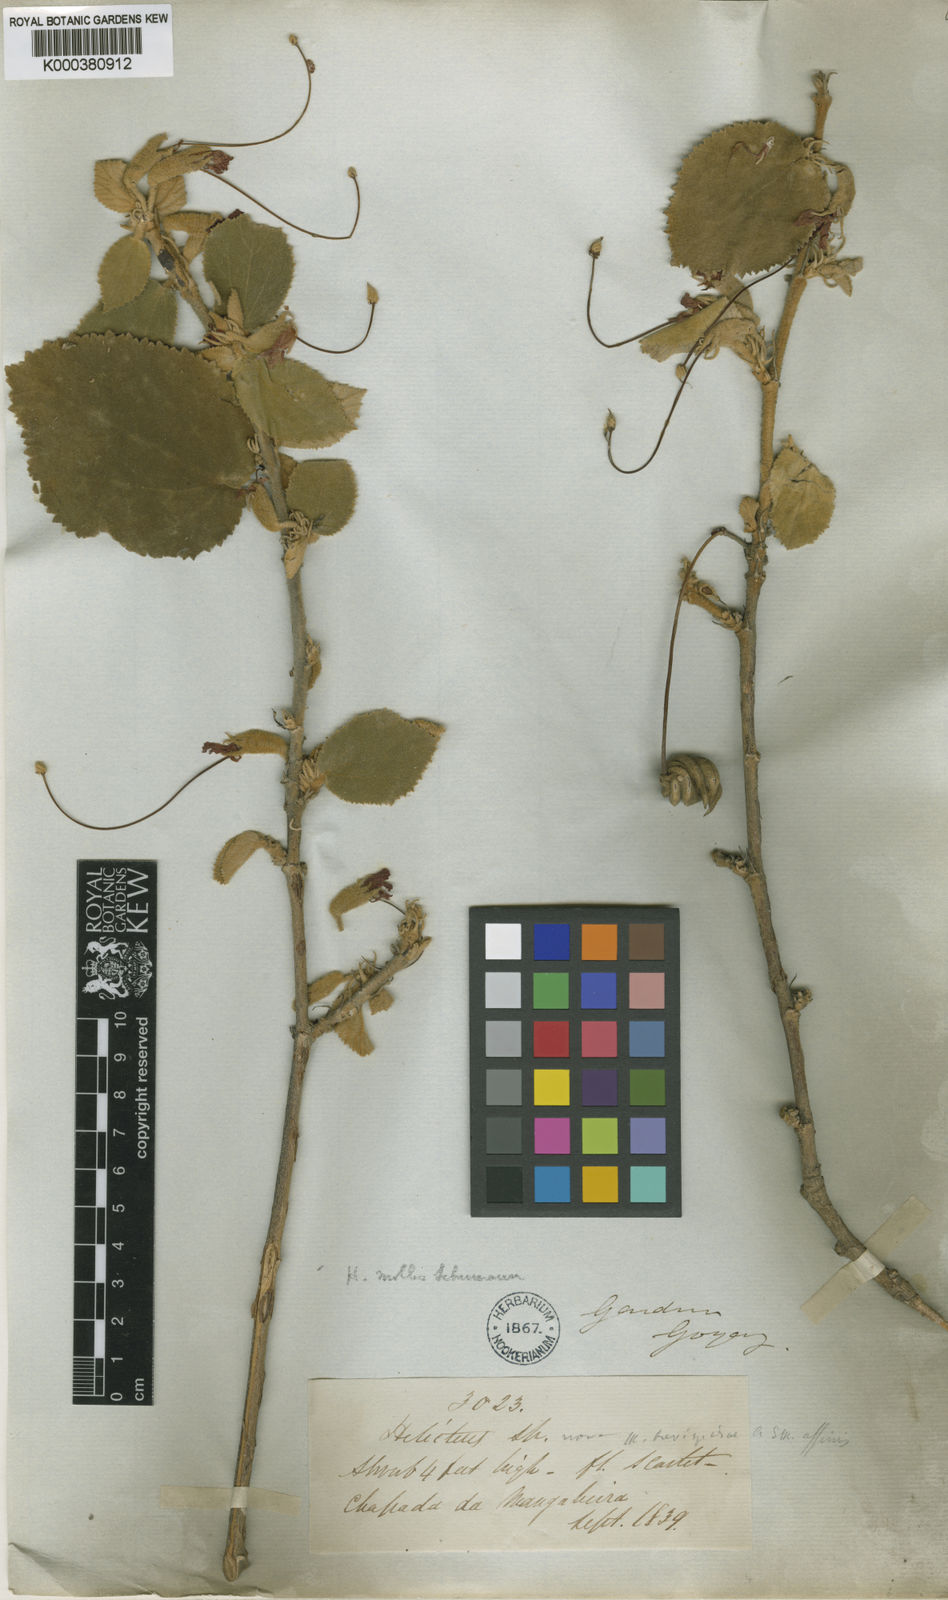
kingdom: Plantae
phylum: Tracheophyta
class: Magnoliopsida
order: Malvales
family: Malvaceae
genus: Helicteres
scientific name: Helicteres
